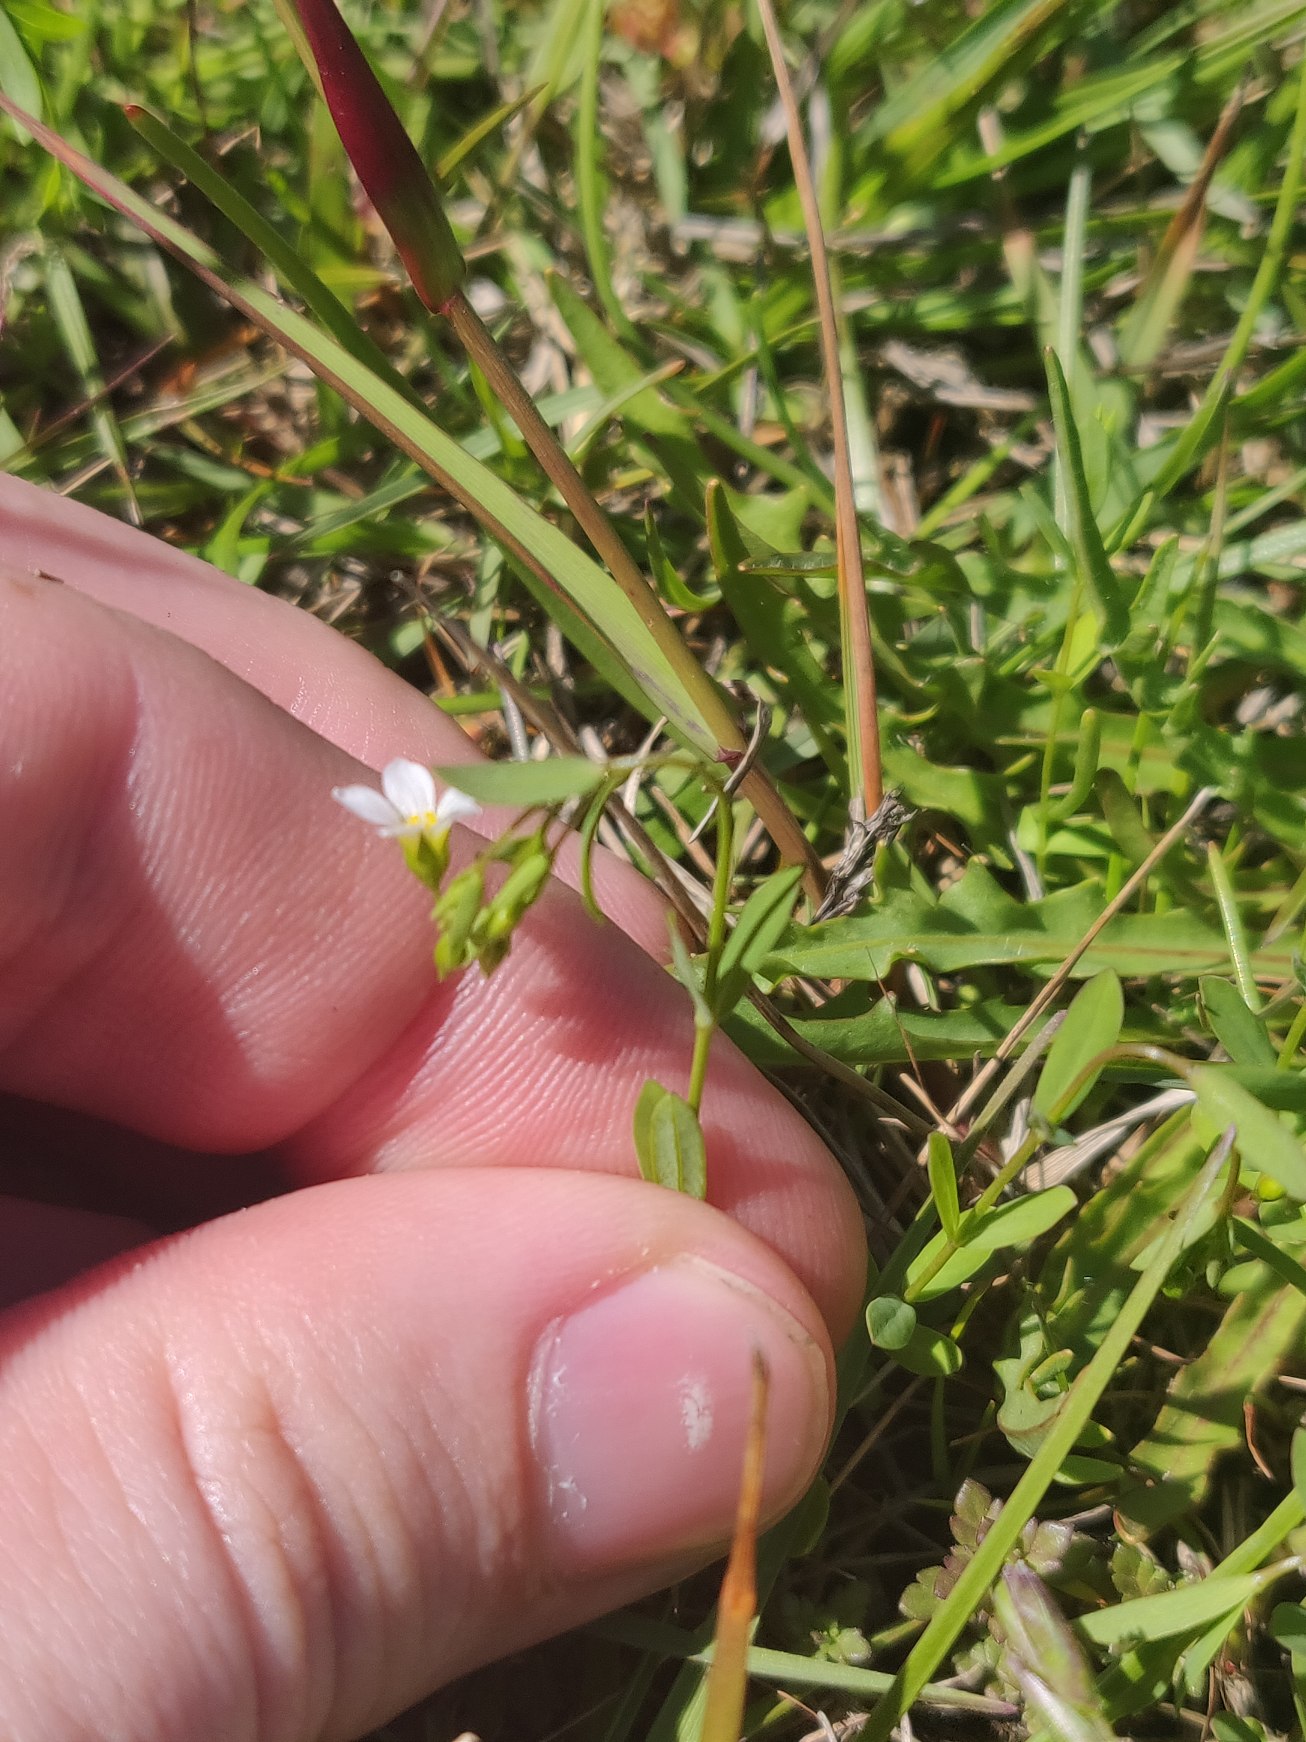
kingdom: Plantae
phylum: Tracheophyta
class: Magnoliopsida
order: Malpighiales
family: Linaceae
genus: Linum
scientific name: Linum catharticum
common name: Vild hør
